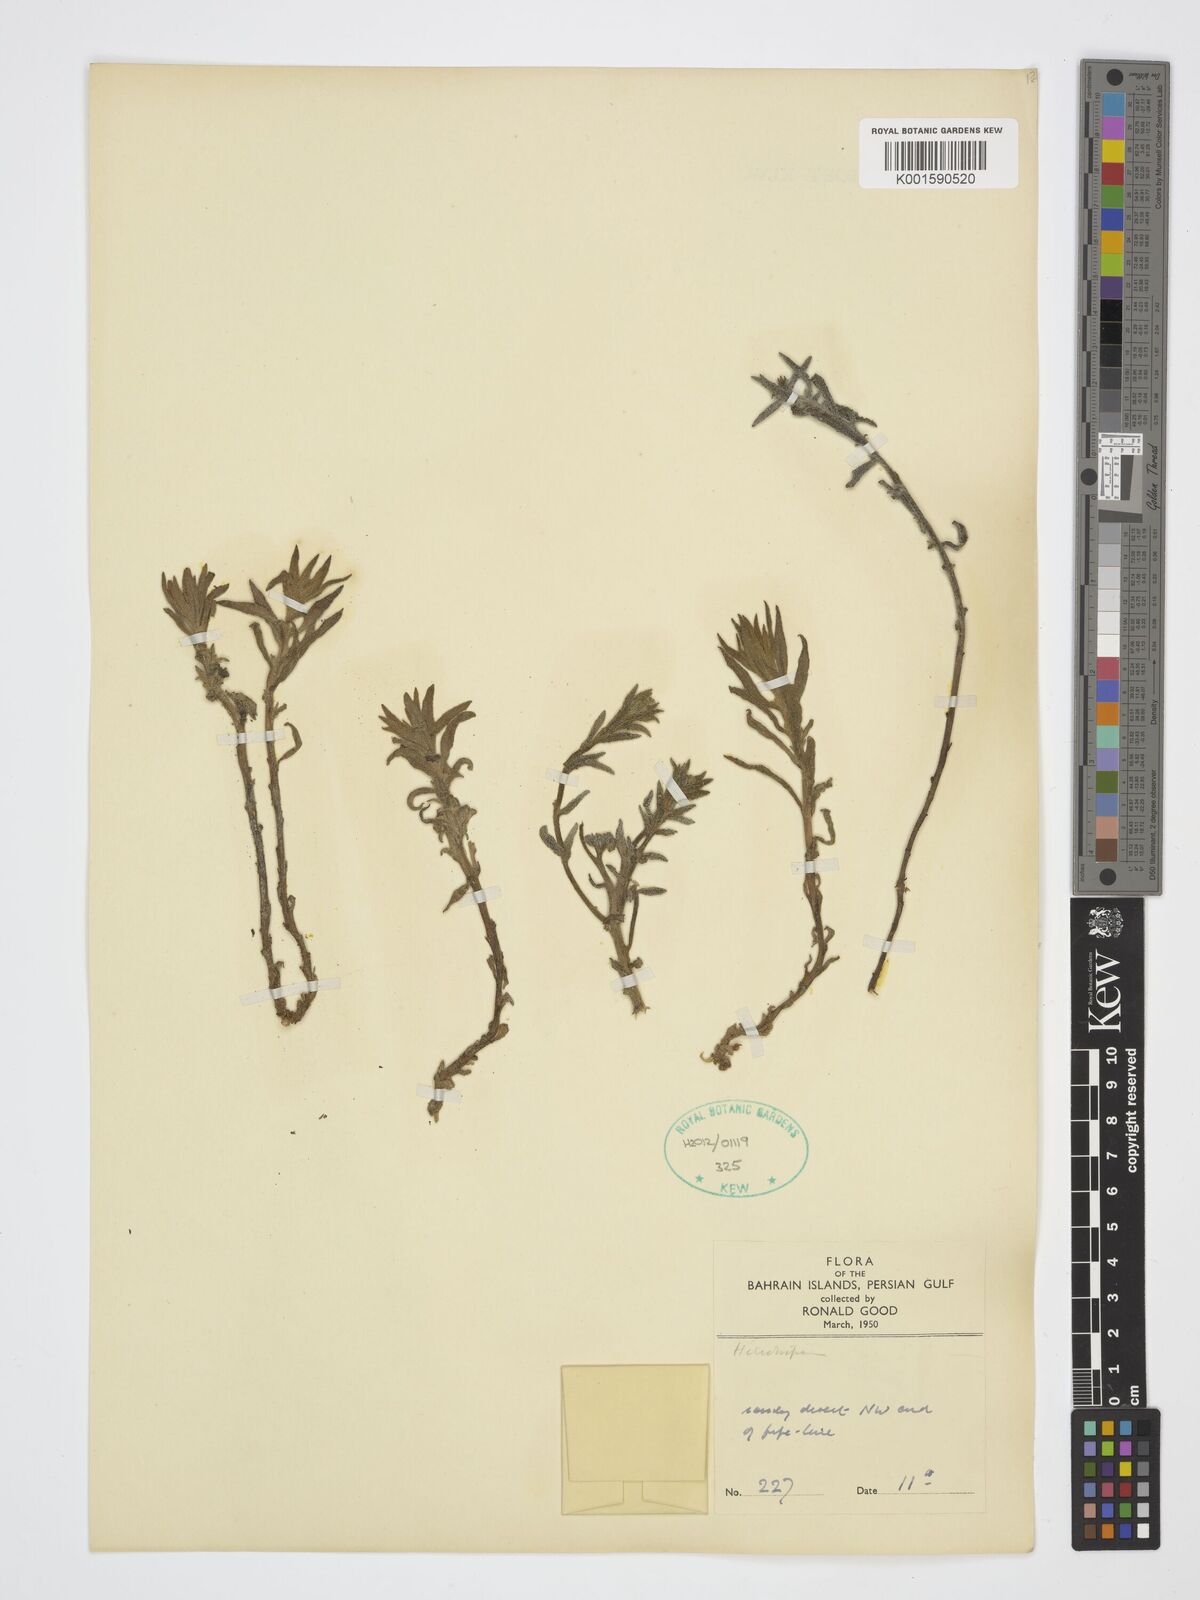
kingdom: Plantae
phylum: Tracheophyta
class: Magnoliopsida
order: Boraginales
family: Heliotropiaceae
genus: Heliotropium
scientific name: Heliotropium
